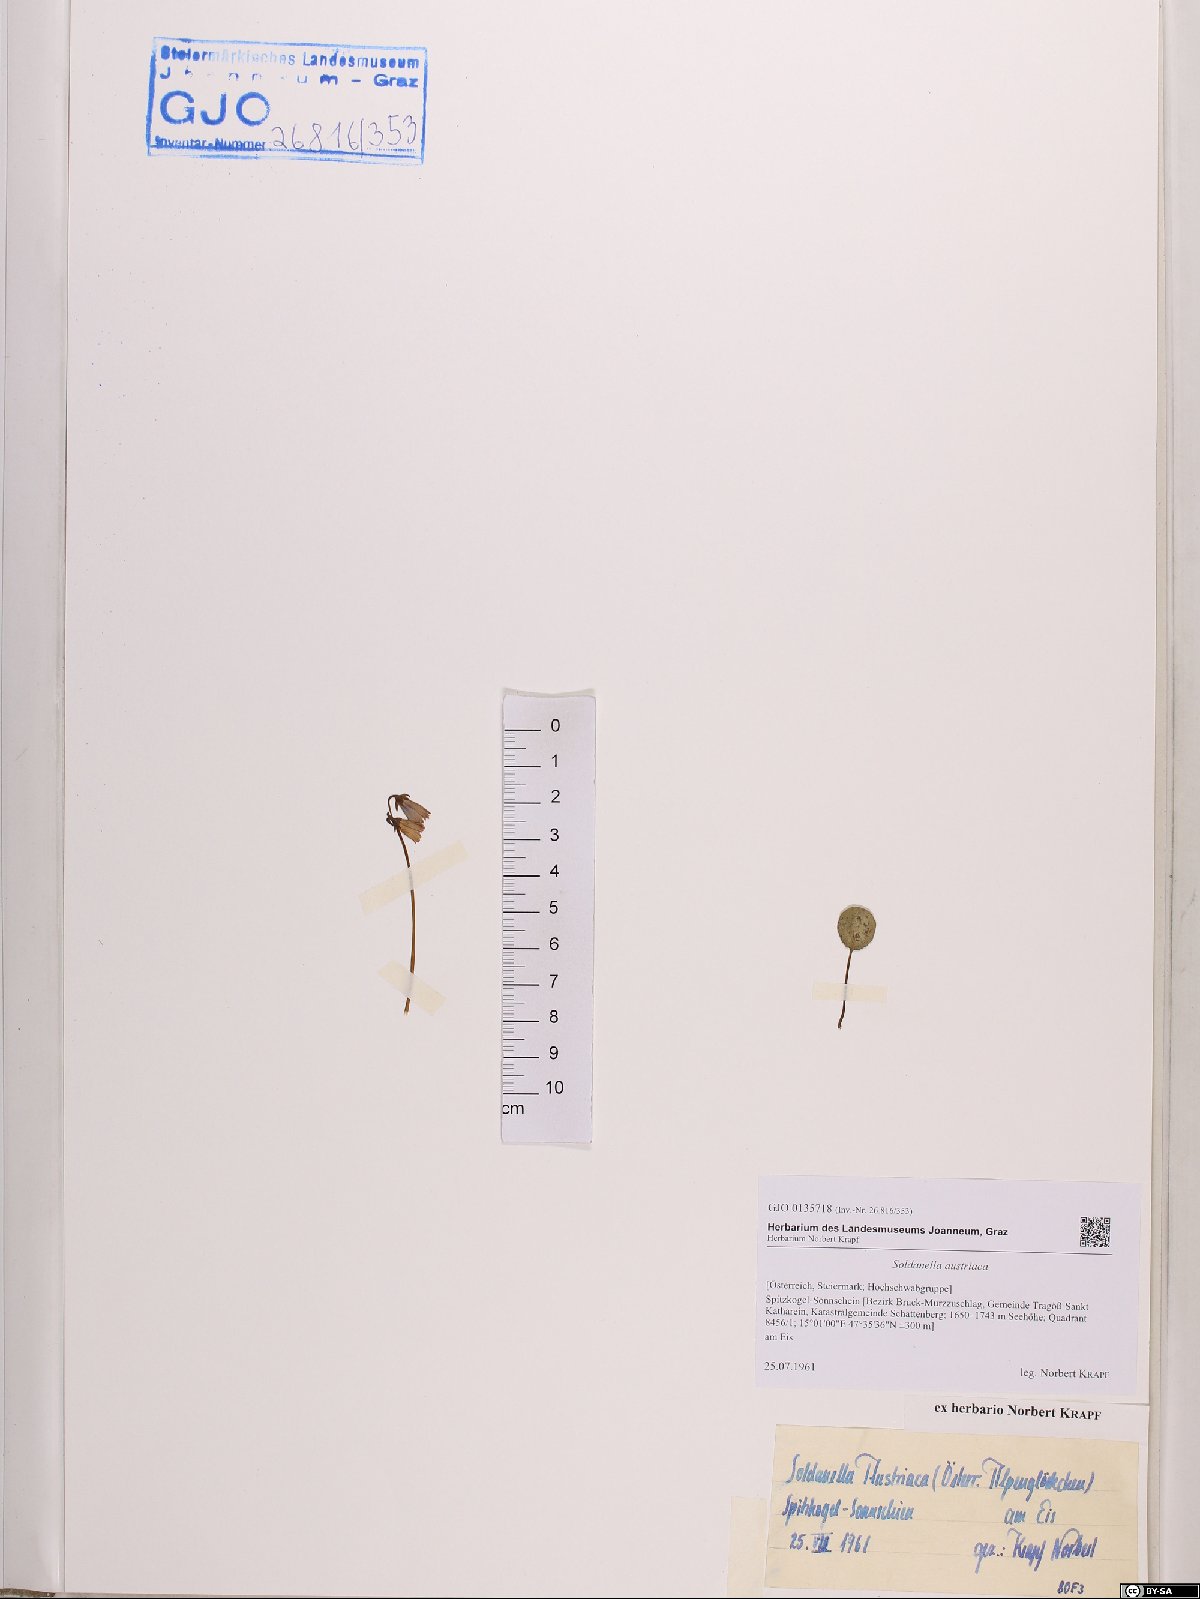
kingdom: Plantae
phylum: Tracheophyta
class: Magnoliopsida
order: Ericales
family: Primulaceae
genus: Soldanella
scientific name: Soldanella austriaca
